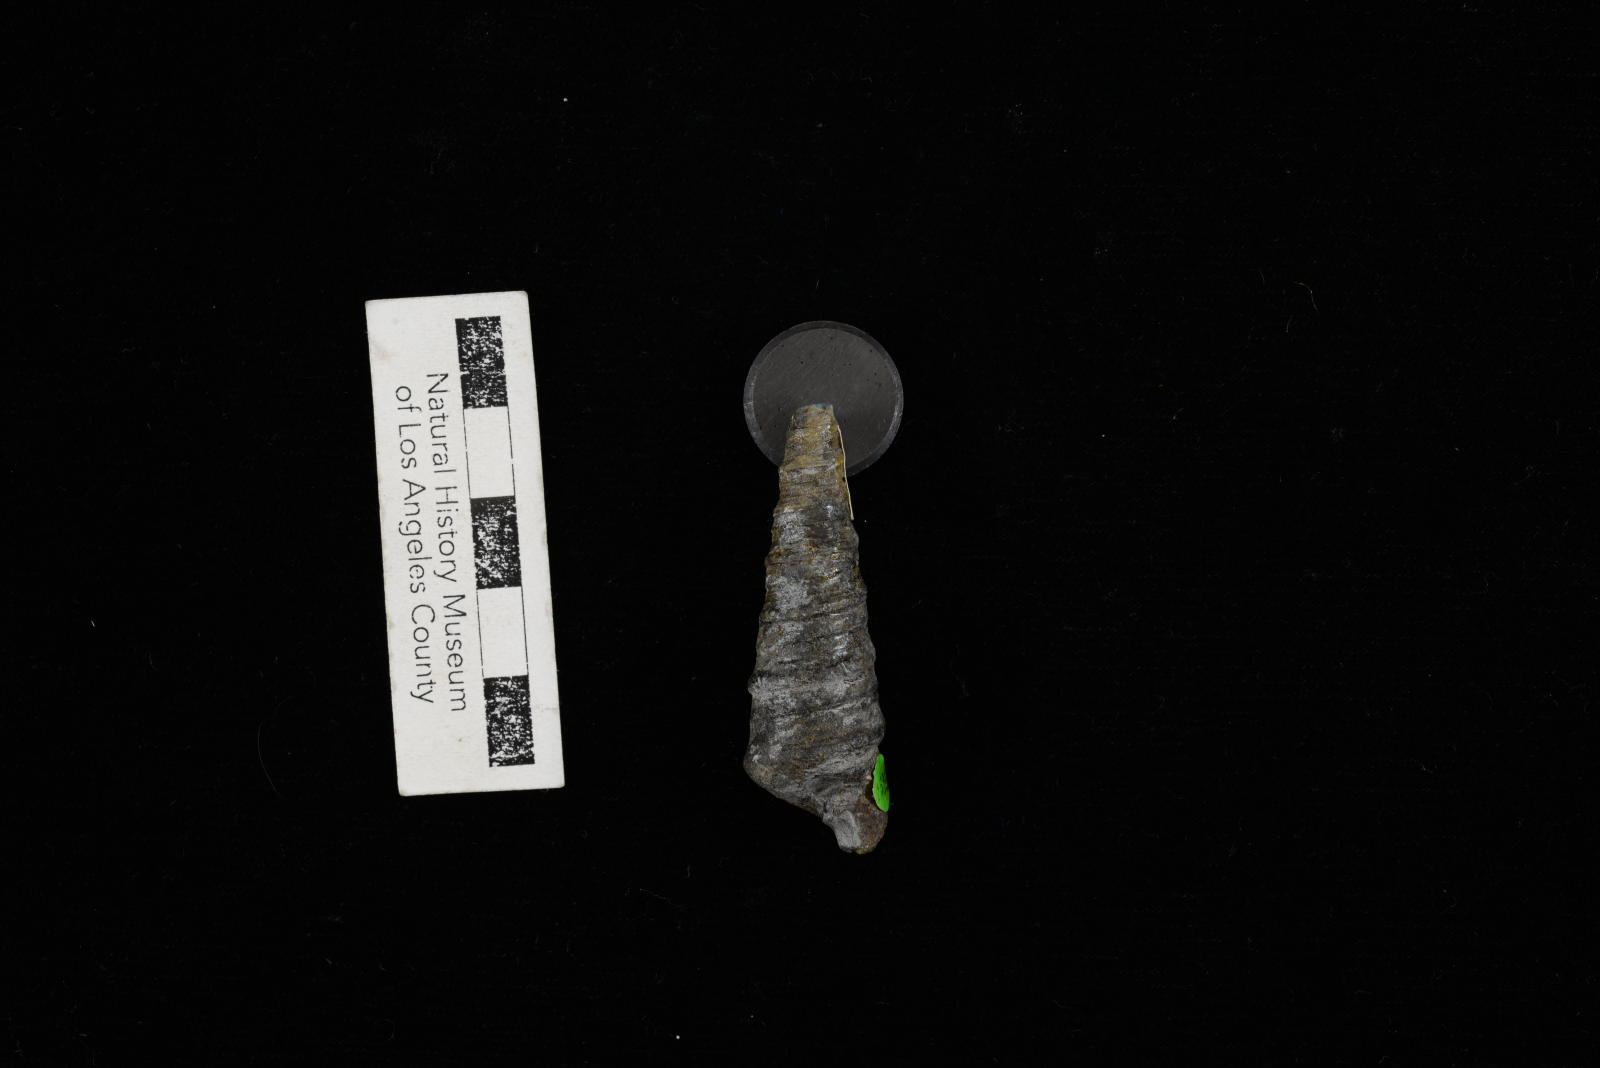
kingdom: Animalia
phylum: Mollusca
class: Gastropoda
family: Turritellidae
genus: Turritella
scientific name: Turritella peninsularis
